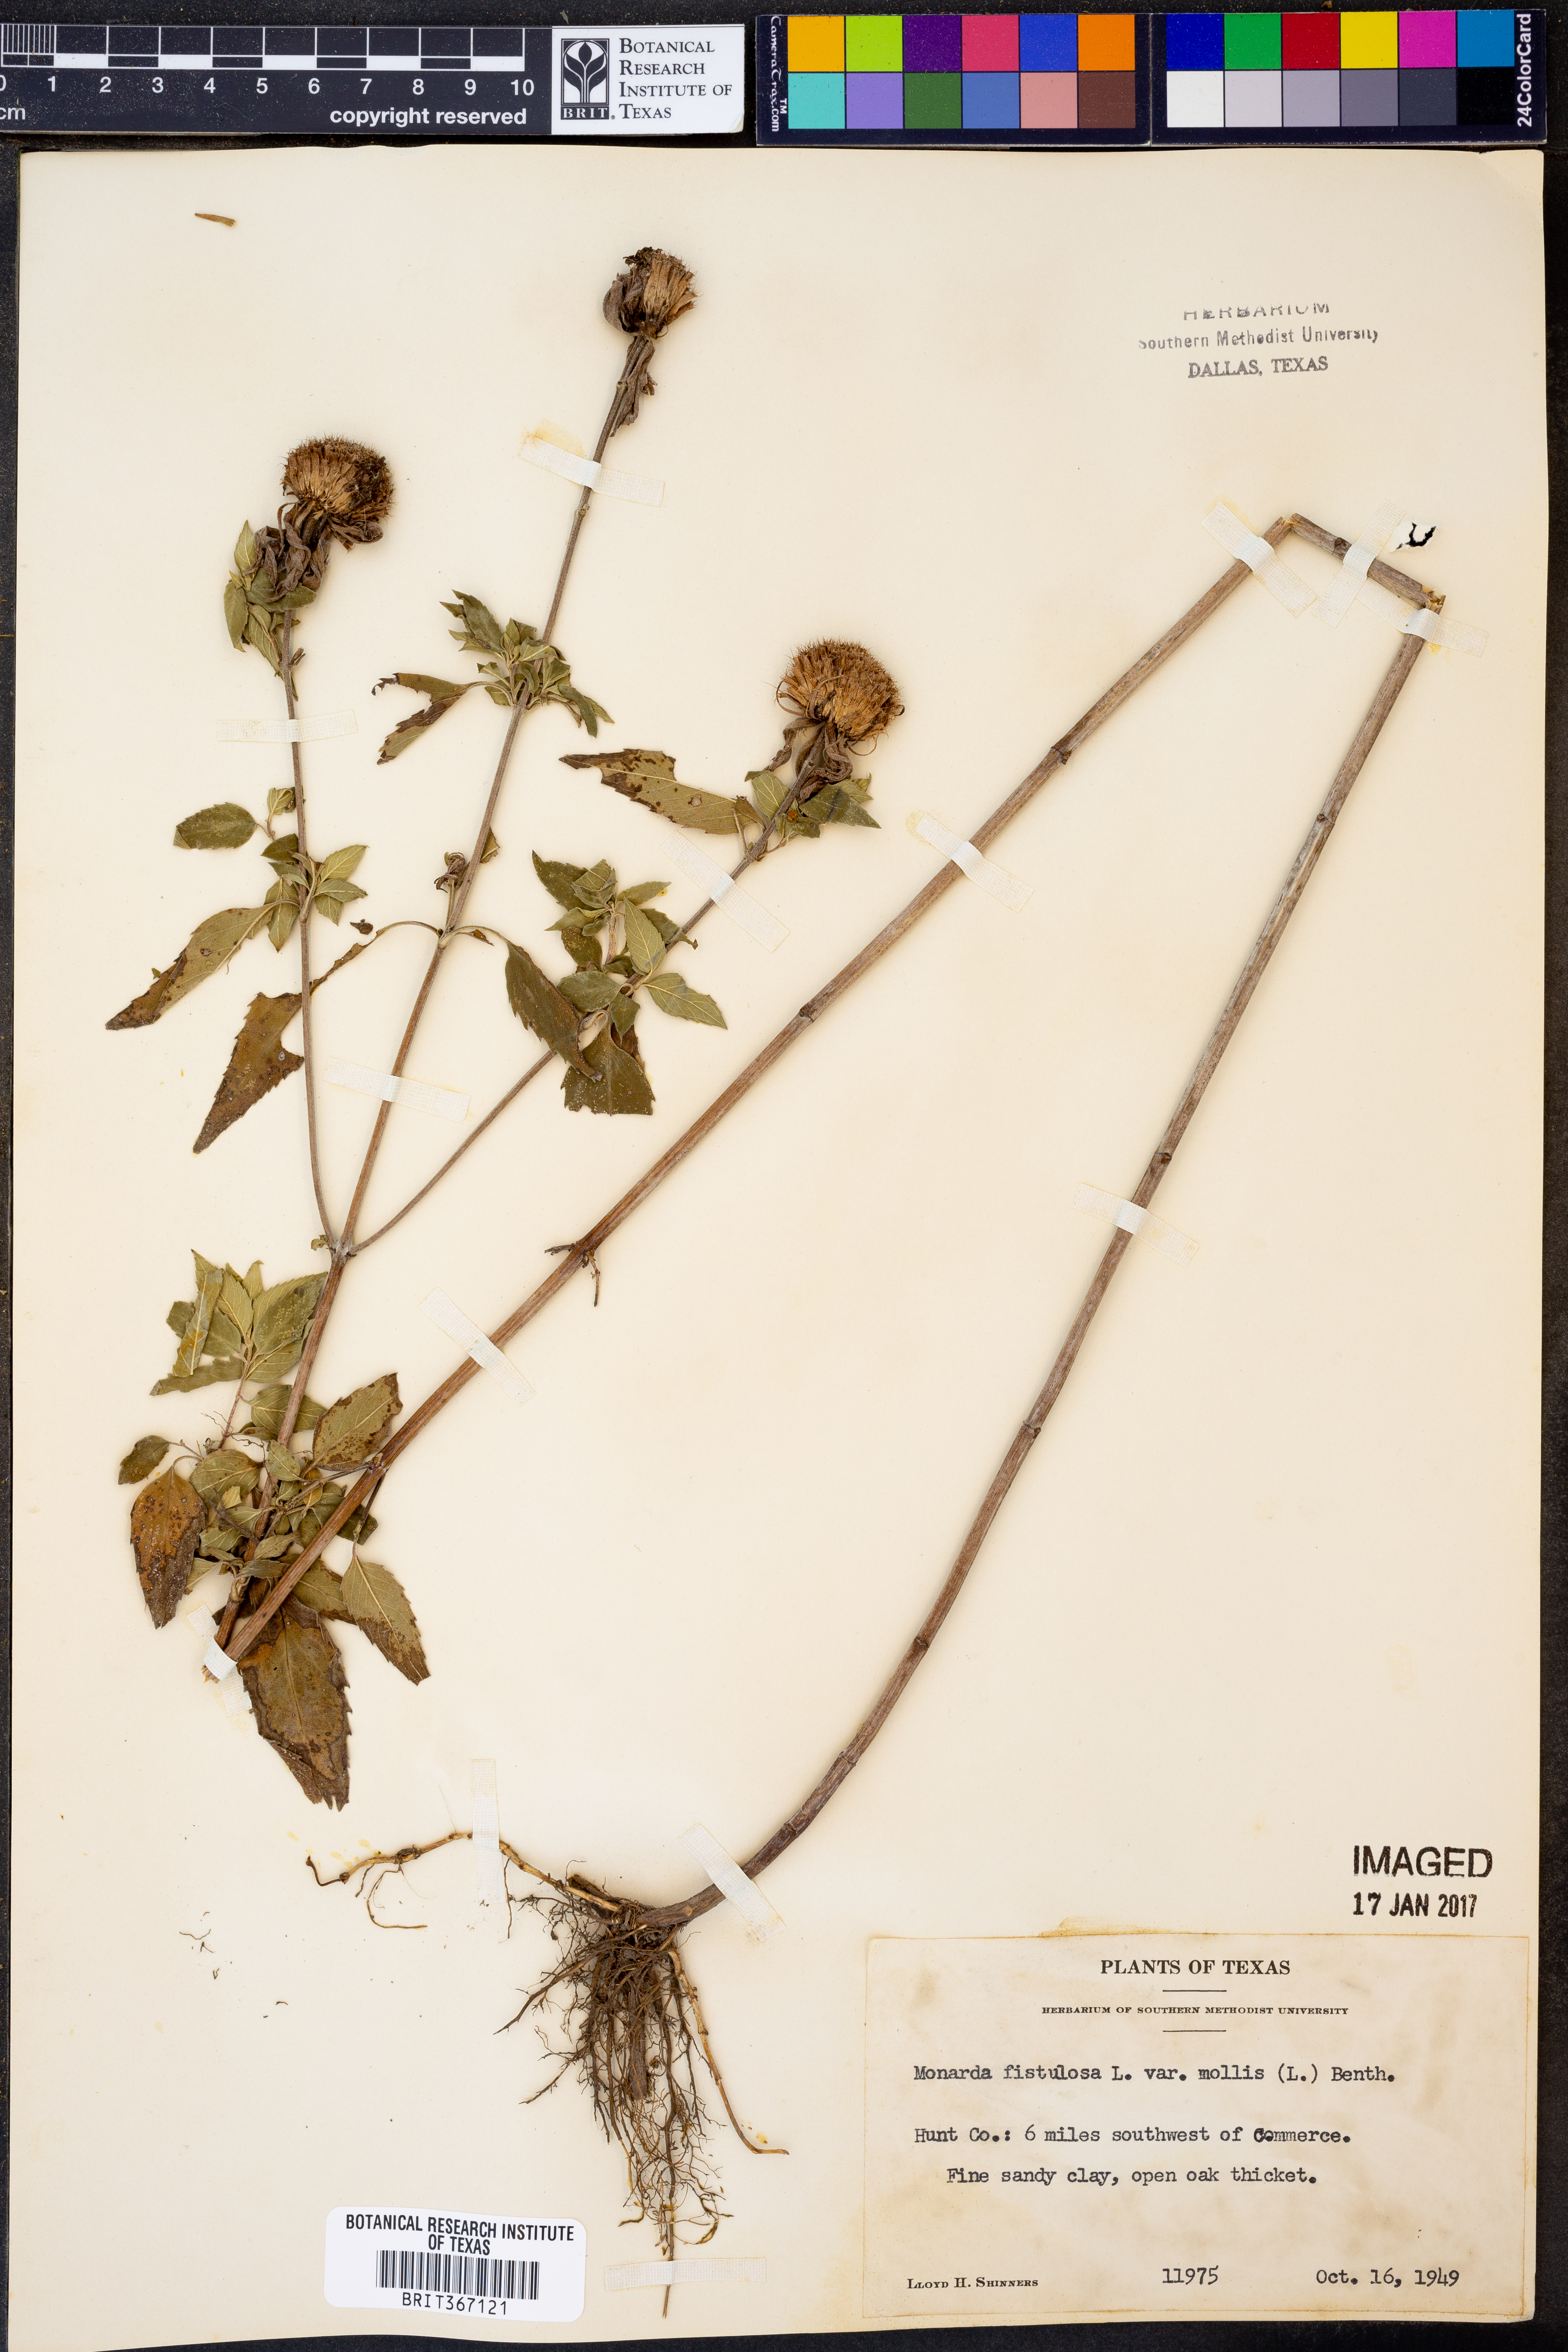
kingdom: Plantae
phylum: Tracheophyta
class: Magnoliopsida
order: Lamiales
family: Lamiaceae
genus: Monarda
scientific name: Monarda fistulosa
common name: Purple beebalm
